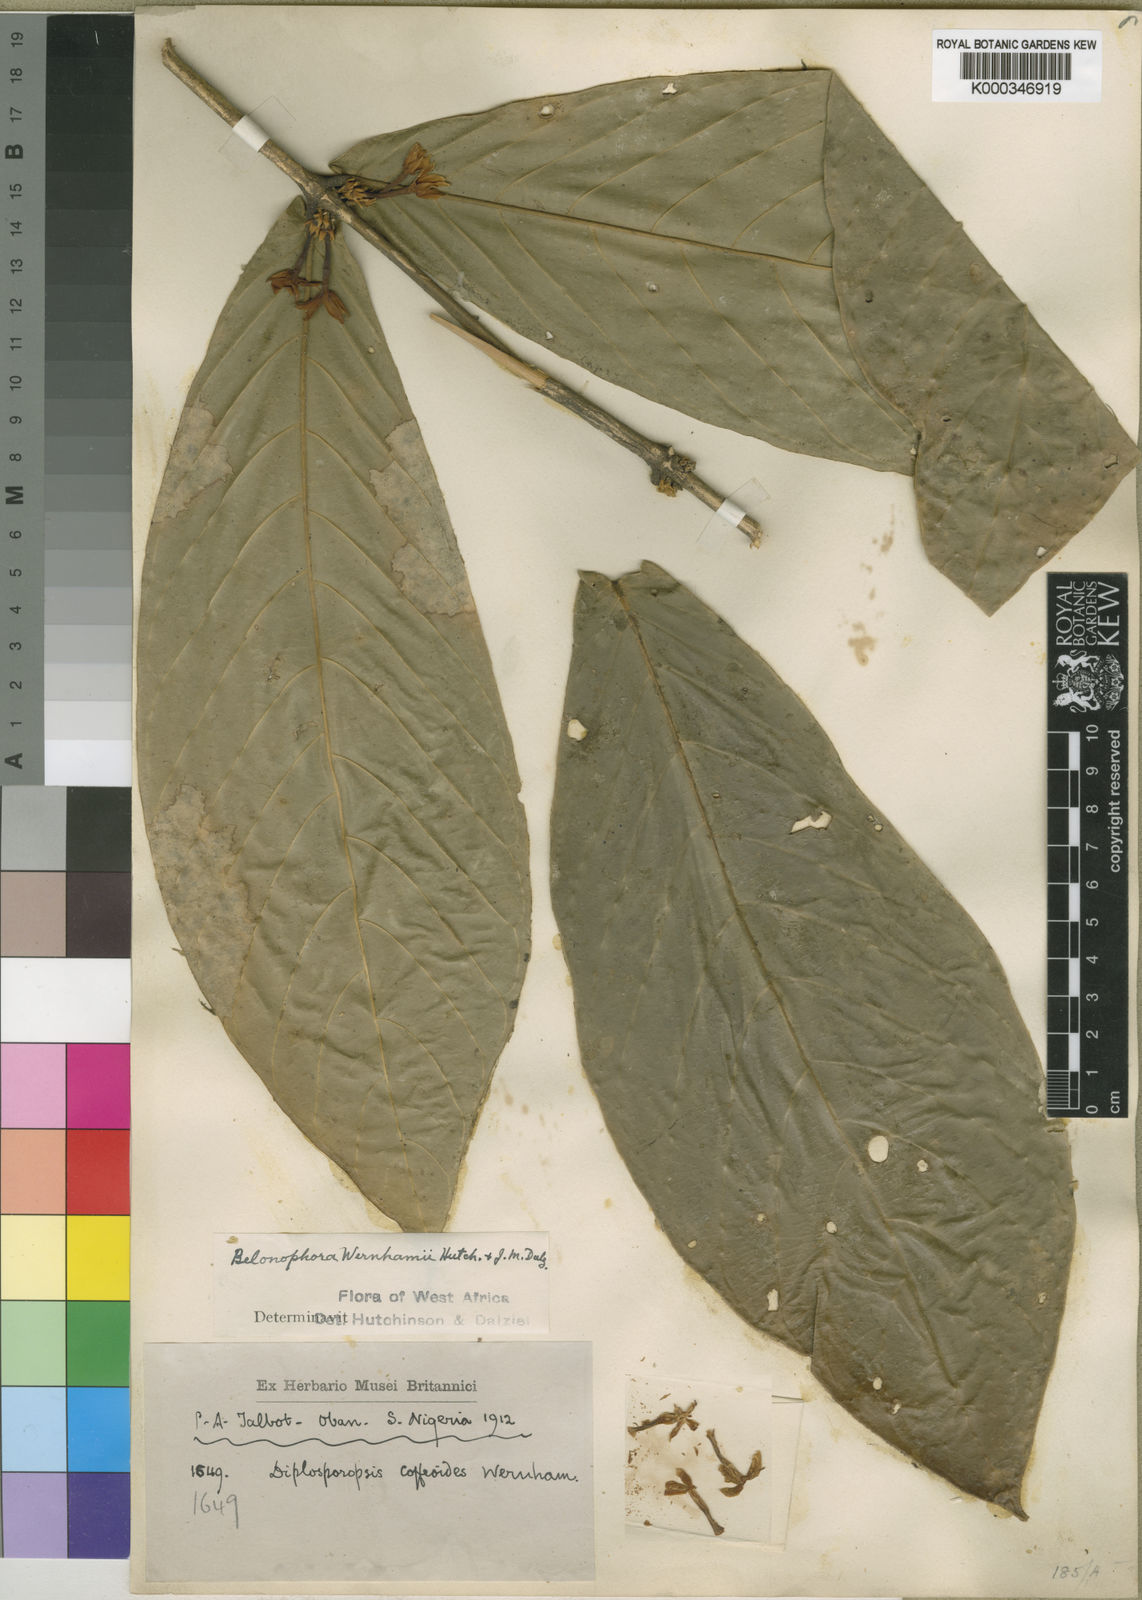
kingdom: Plantae
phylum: Tracheophyta
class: Magnoliopsida
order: Gentianales
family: Rubiaceae
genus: Belonophora
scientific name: Belonophora wernhamii
